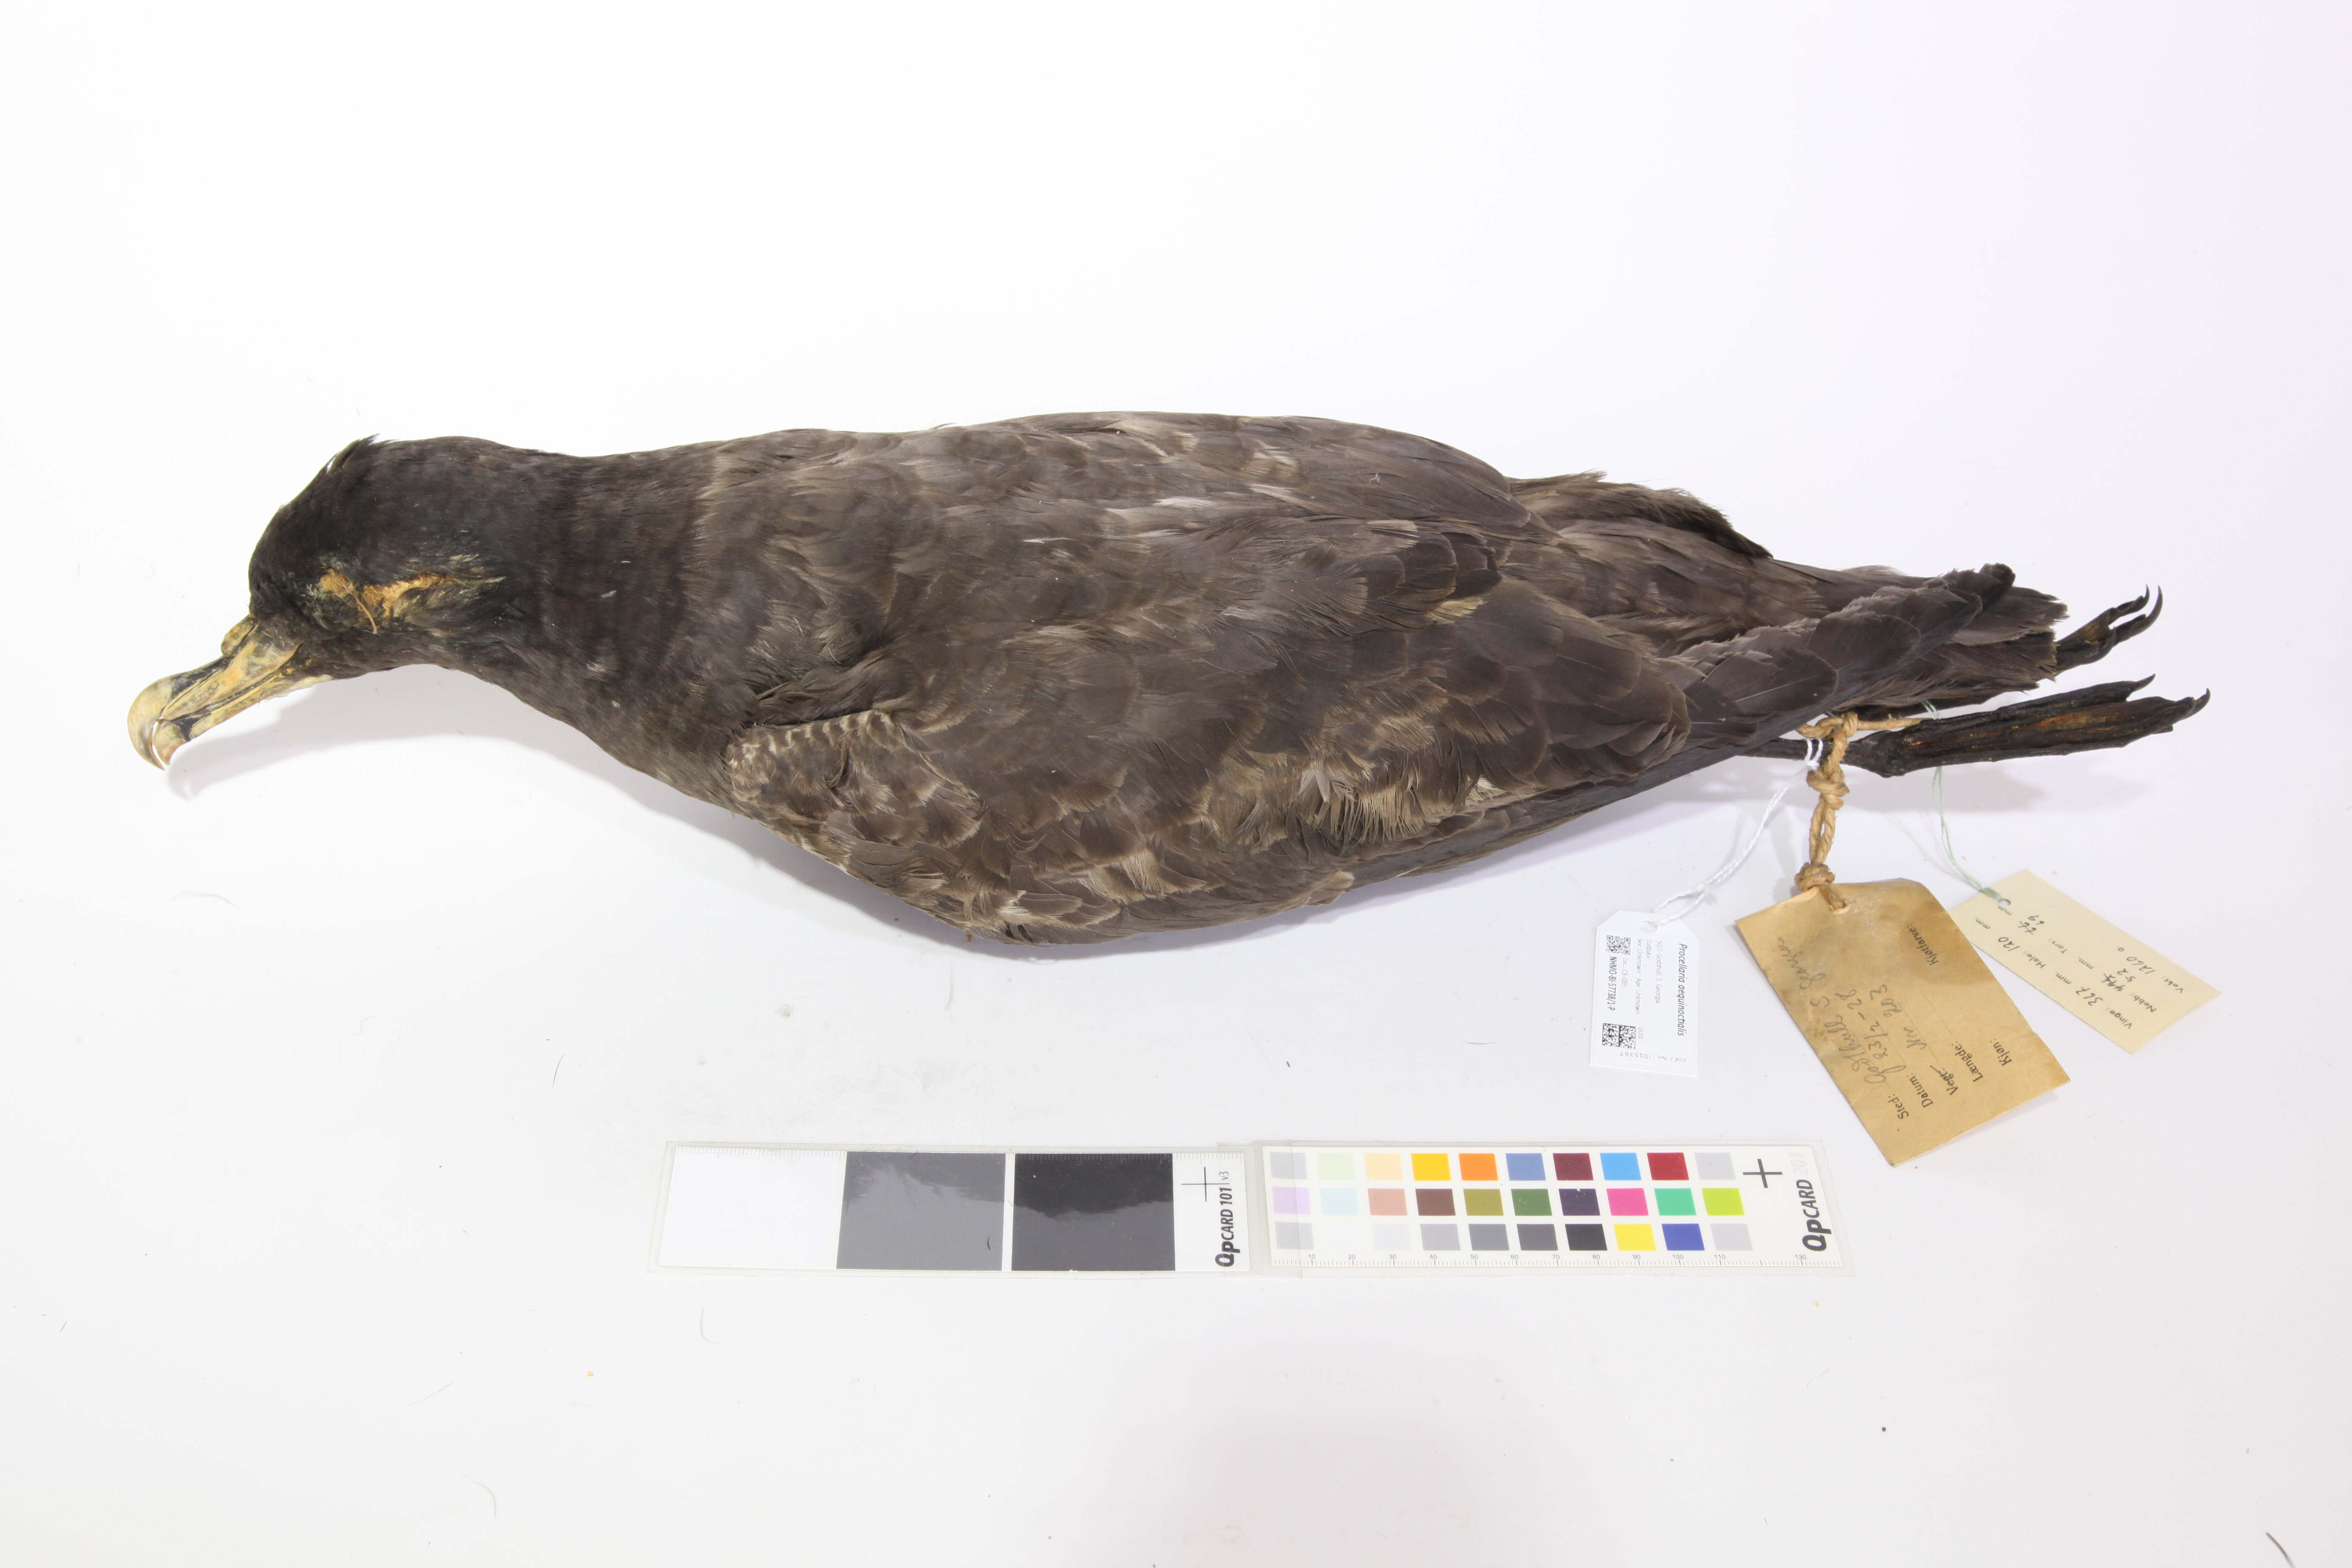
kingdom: Animalia
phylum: Chordata
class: Aves
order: Procellariiformes
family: Procellariidae
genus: Procellaria
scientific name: Procellaria aequinoctialis
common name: White-chinned petrel
